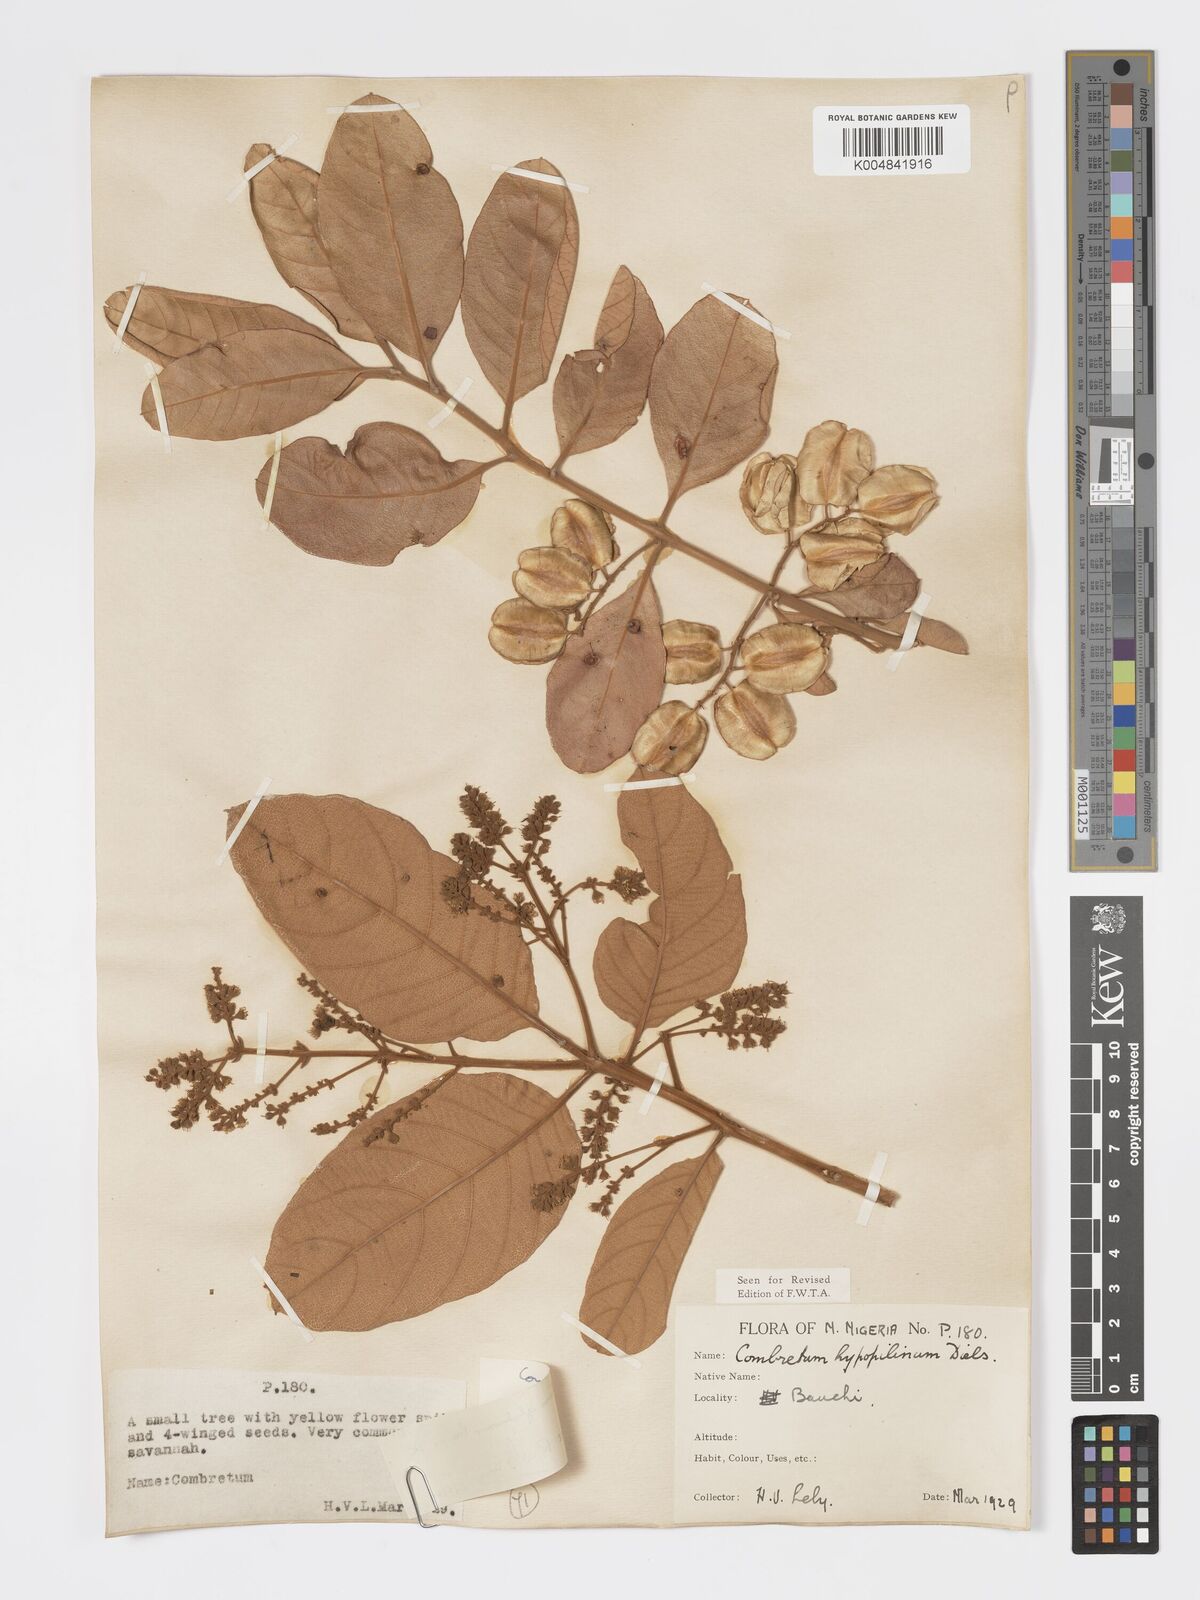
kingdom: Plantae
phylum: Tracheophyta
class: Magnoliopsida
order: Myrtales
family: Combretaceae
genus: Combretum
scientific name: Combretum
